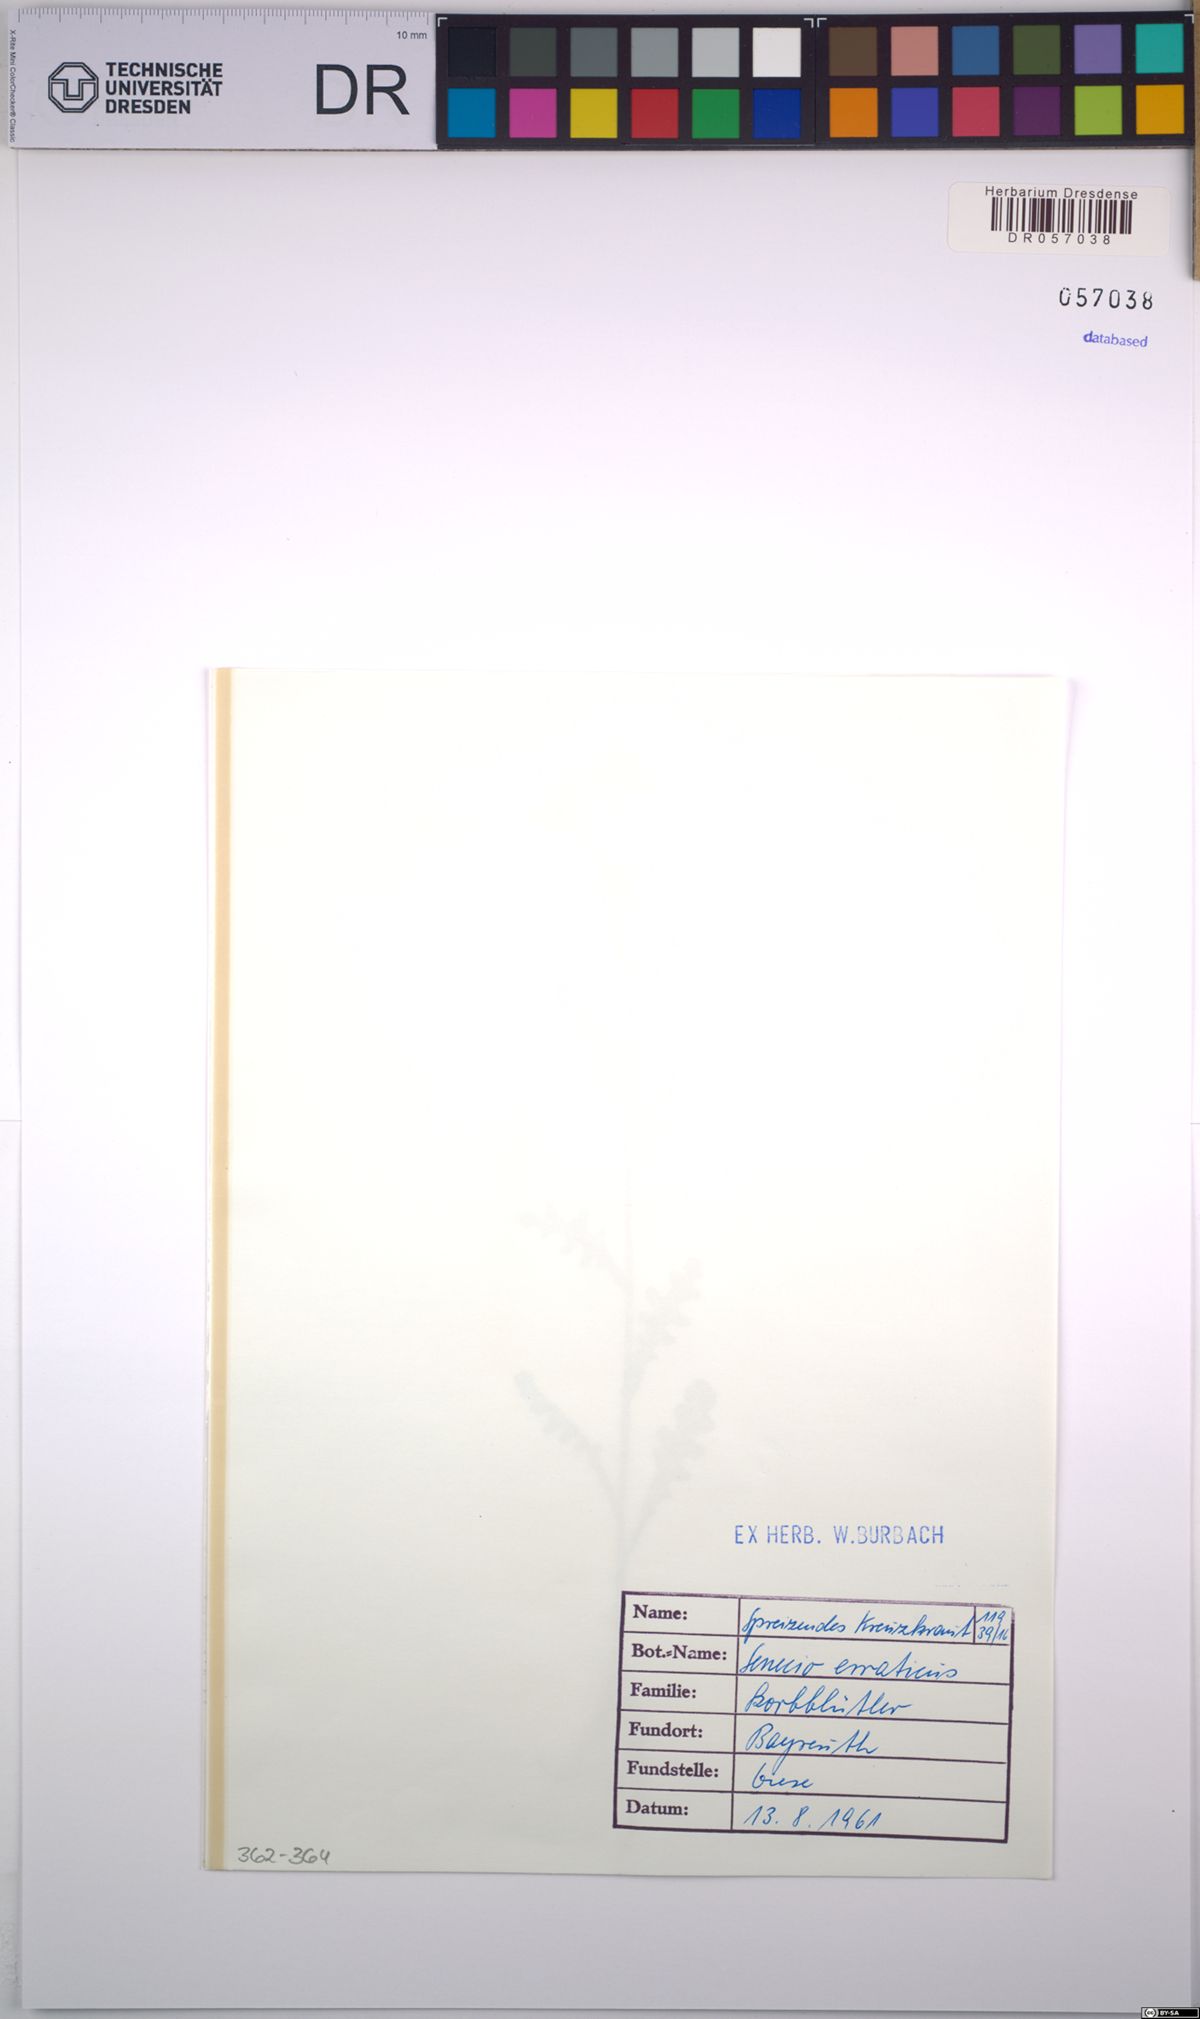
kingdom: Plantae
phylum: Tracheophyta
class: Magnoliopsida
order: Asterales
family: Asteraceae
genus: Jacobaea
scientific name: Jacobaea erratica
